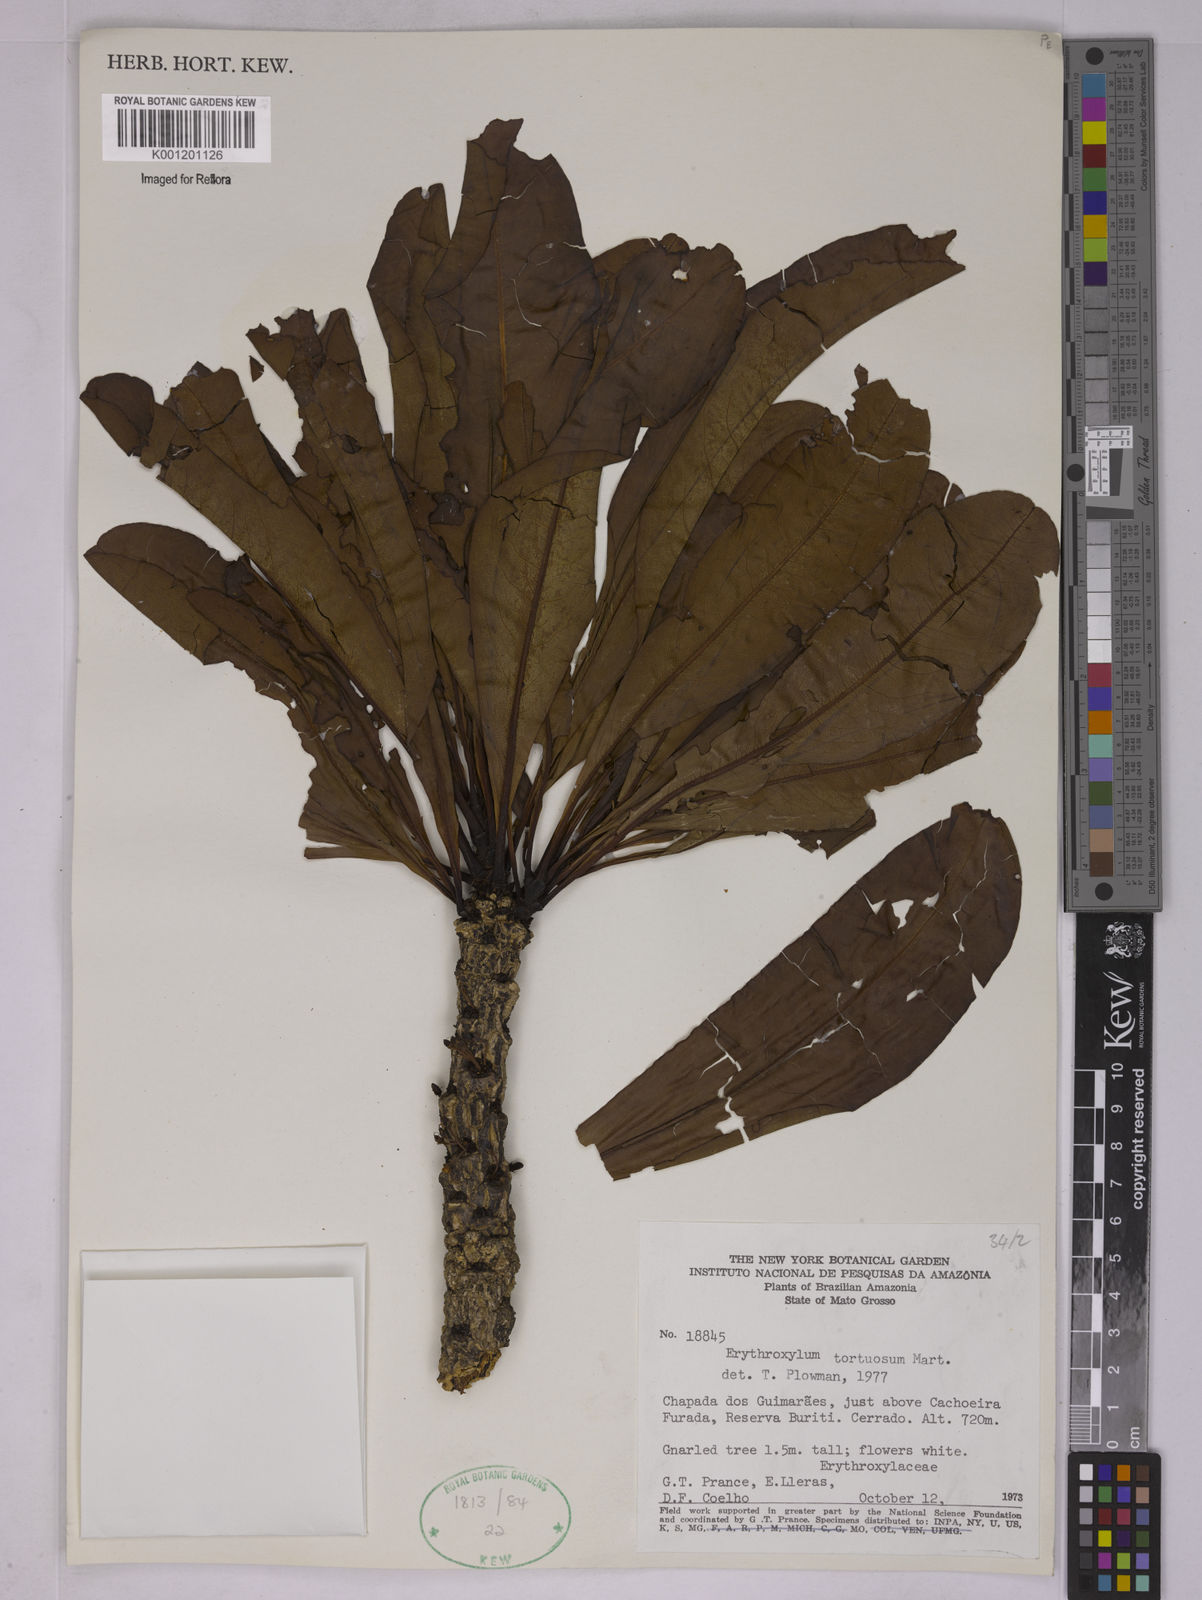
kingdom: Plantae
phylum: Tracheophyta
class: Magnoliopsida
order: Malpighiales
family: Erythroxylaceae
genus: Erythroxylum
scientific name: Erythroxylum tortuosum
